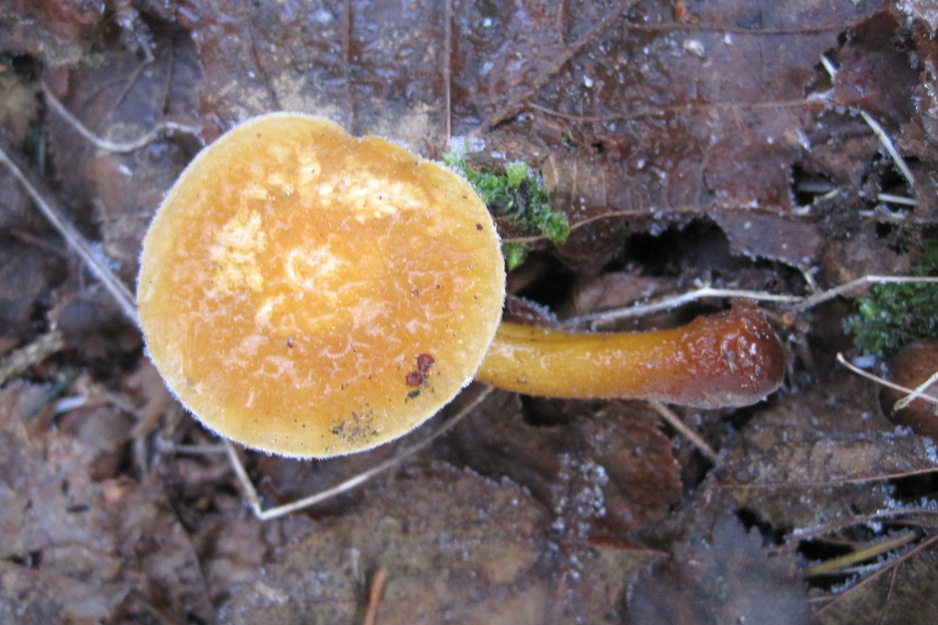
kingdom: Fungi
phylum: Basidiomycota
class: Agaricomycetes
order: Agaricales
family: Physalacriaceae
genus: Flammulina
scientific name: Flammulina populicola
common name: poppel-fløjlsfod
